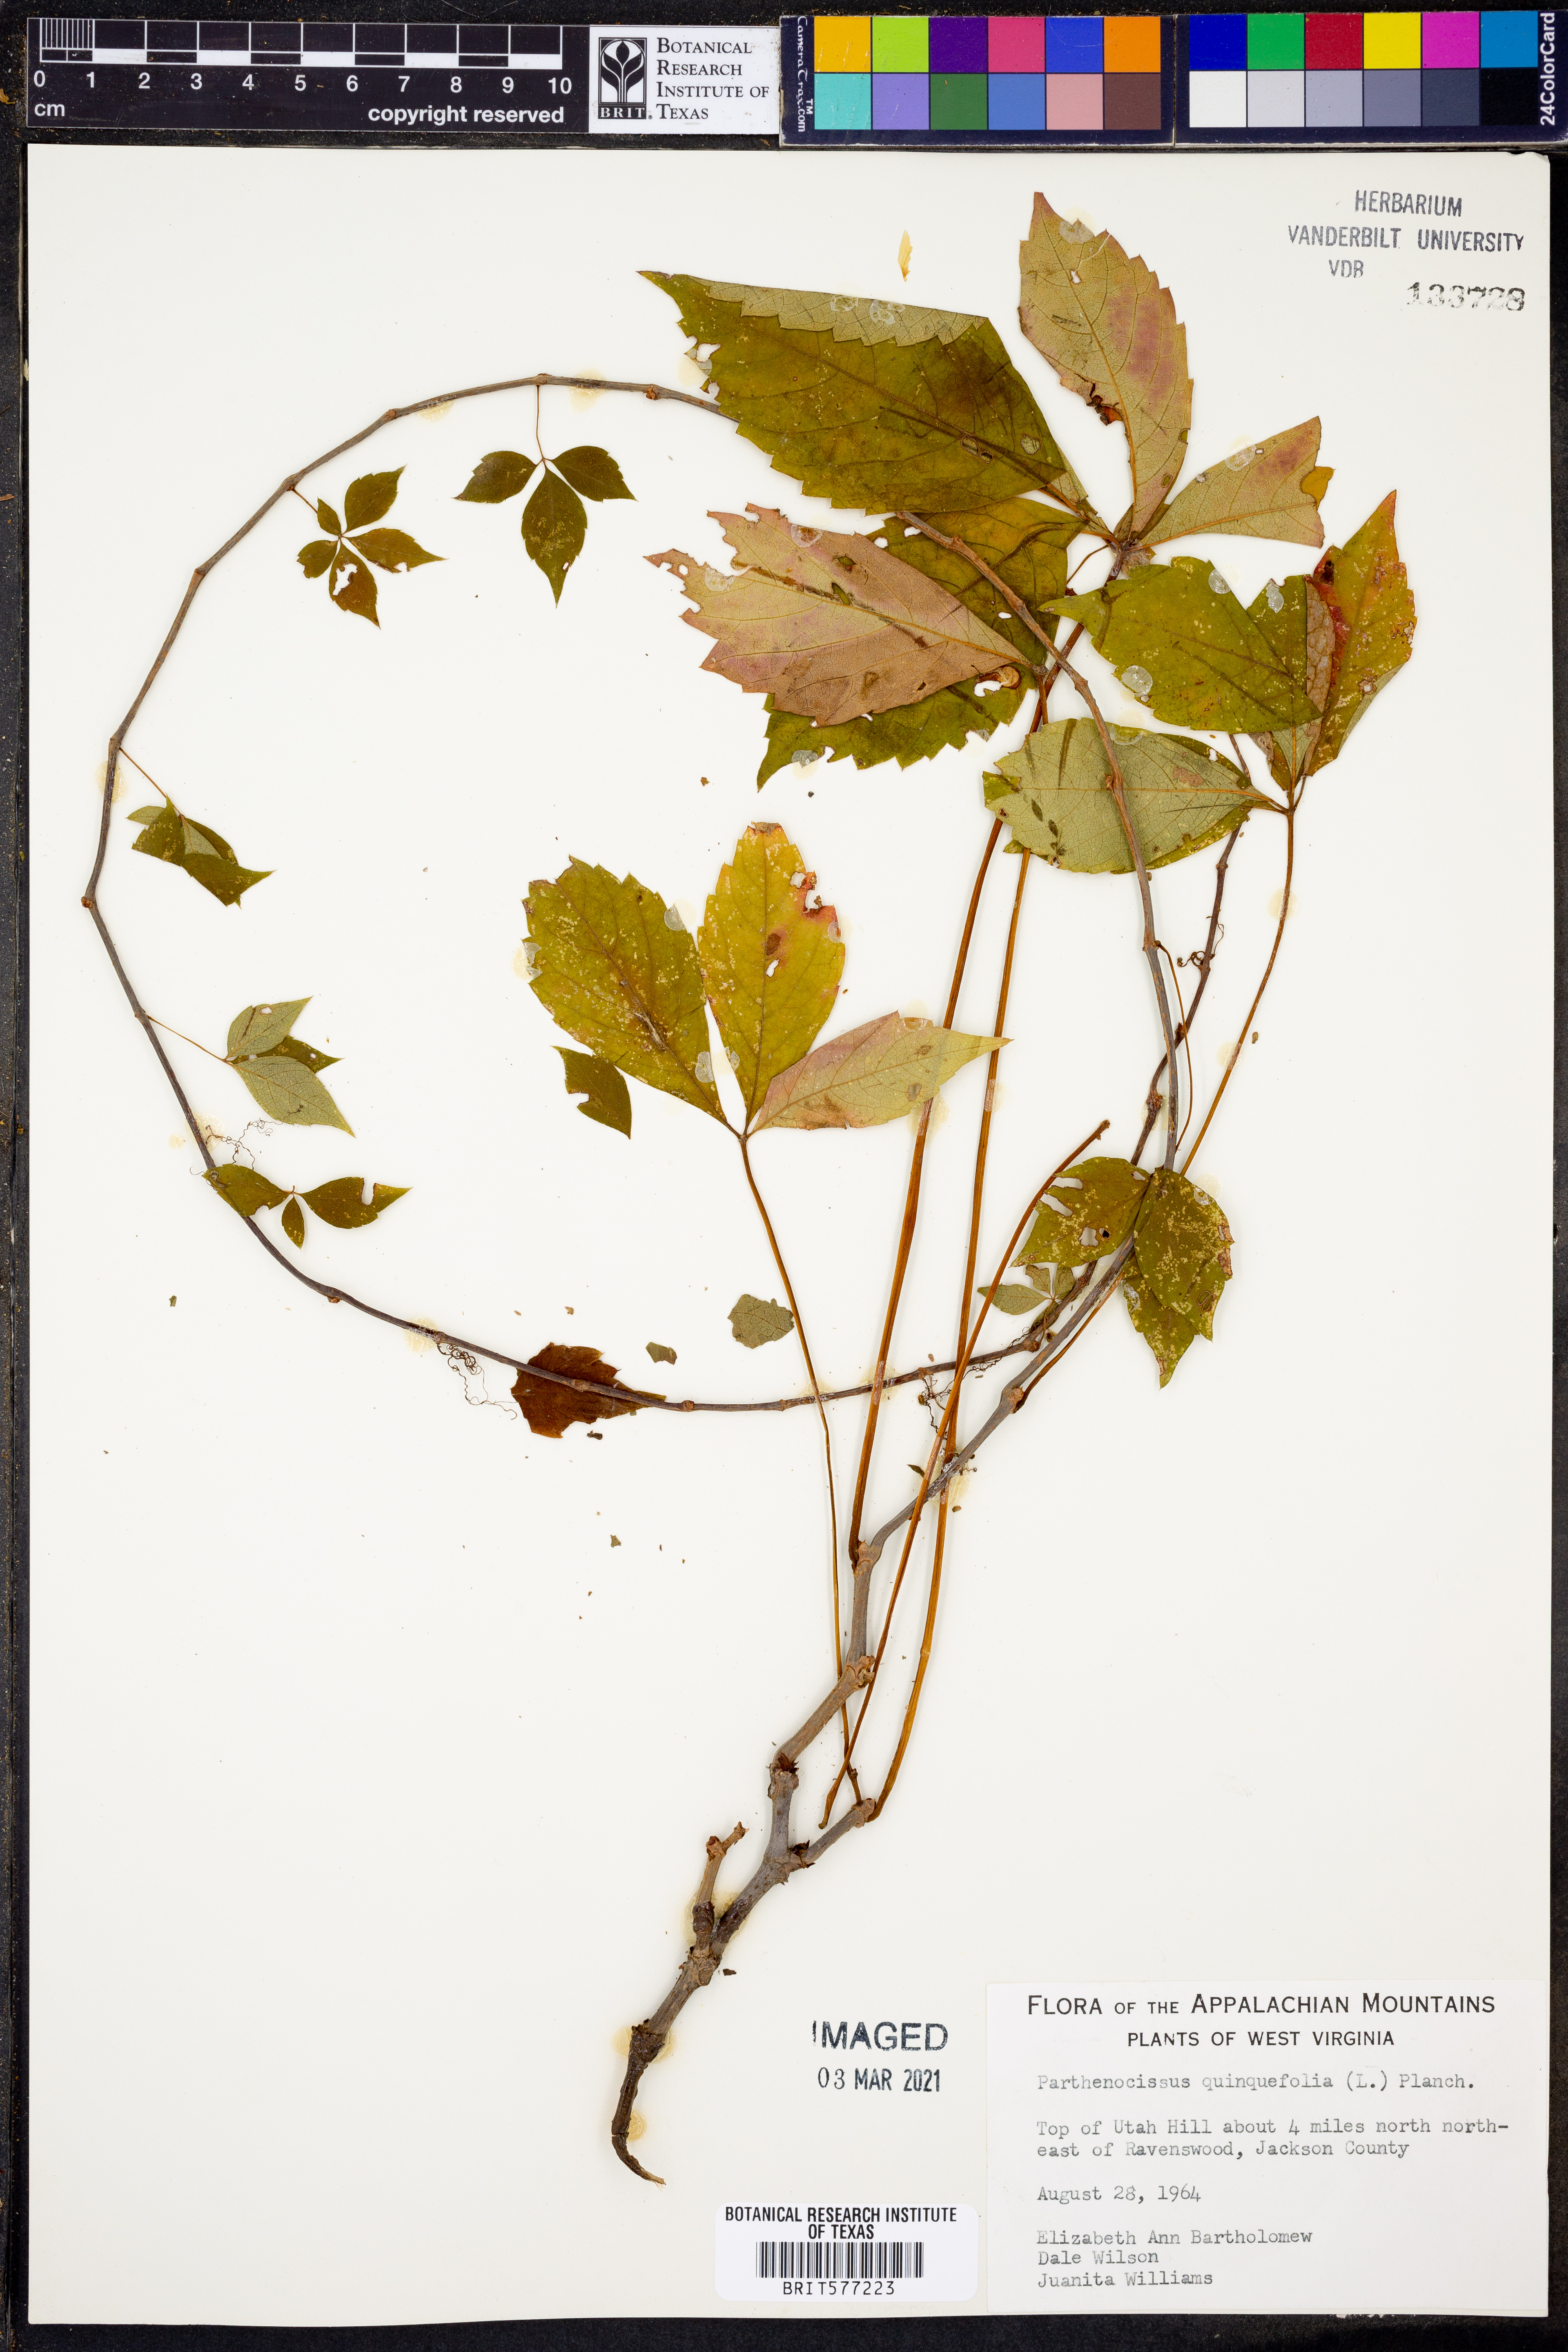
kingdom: Plantae
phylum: Tracheophyta
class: Magnoliopsida
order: Vitales
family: Vitaceae
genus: Parthenocissus
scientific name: Parthenocissus quinquefolia
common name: Virginia-creeper
